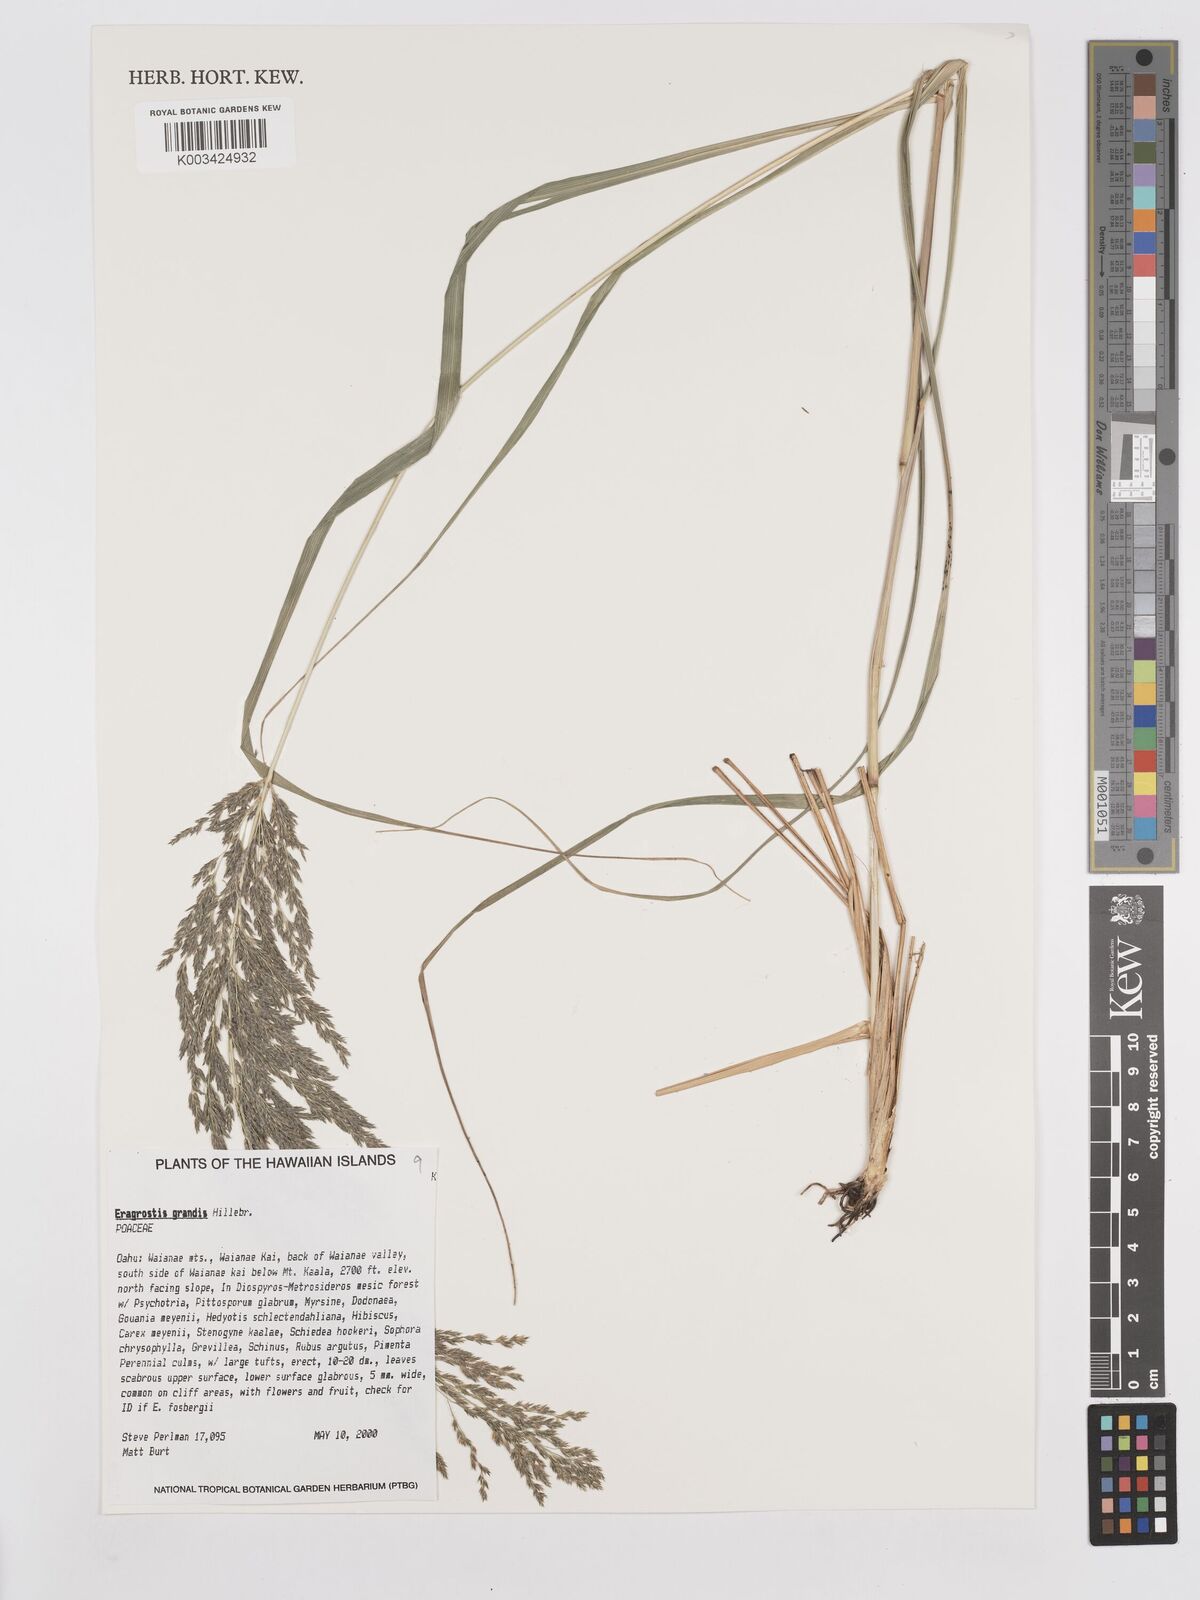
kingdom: Plantae
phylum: Tracheophyta
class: Liliopsida
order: Poales
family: Poaceae
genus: Eragrostis
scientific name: Eragrostis grandis
